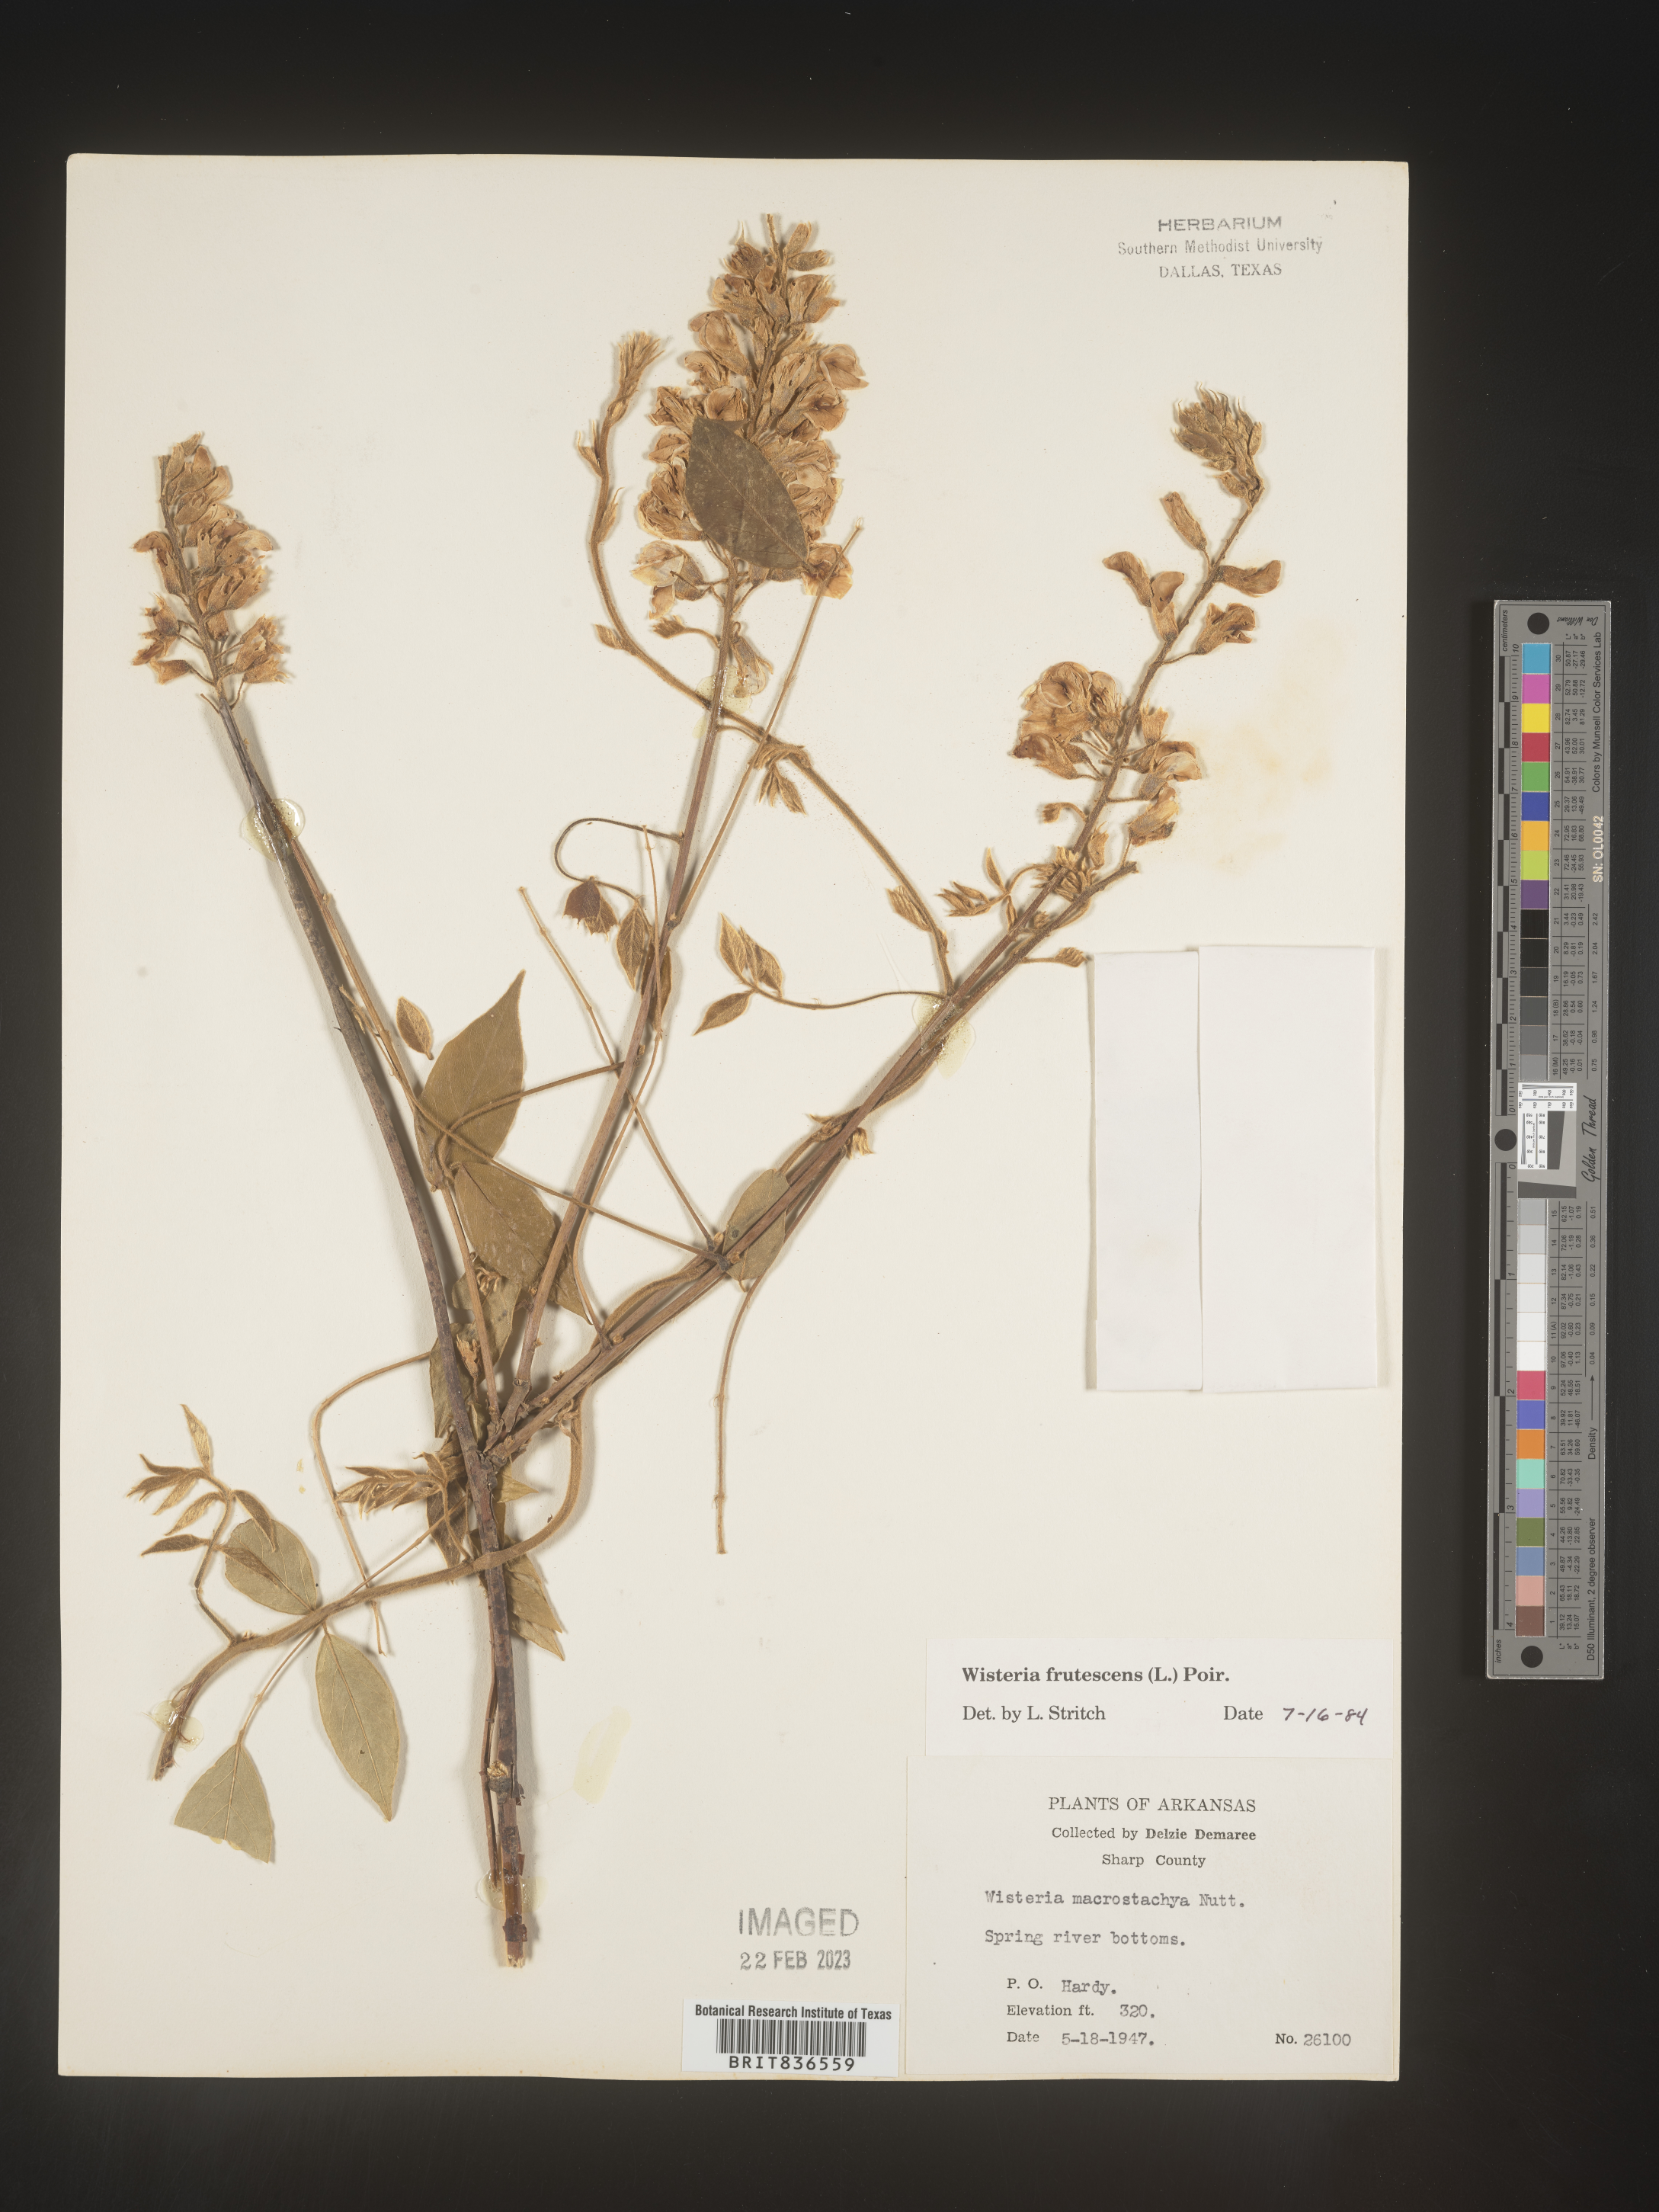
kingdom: Plantae
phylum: Tracheophyta
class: Magnoliopsida
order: Fabales
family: Fabaceae
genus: Wisteria
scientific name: Wisteria
